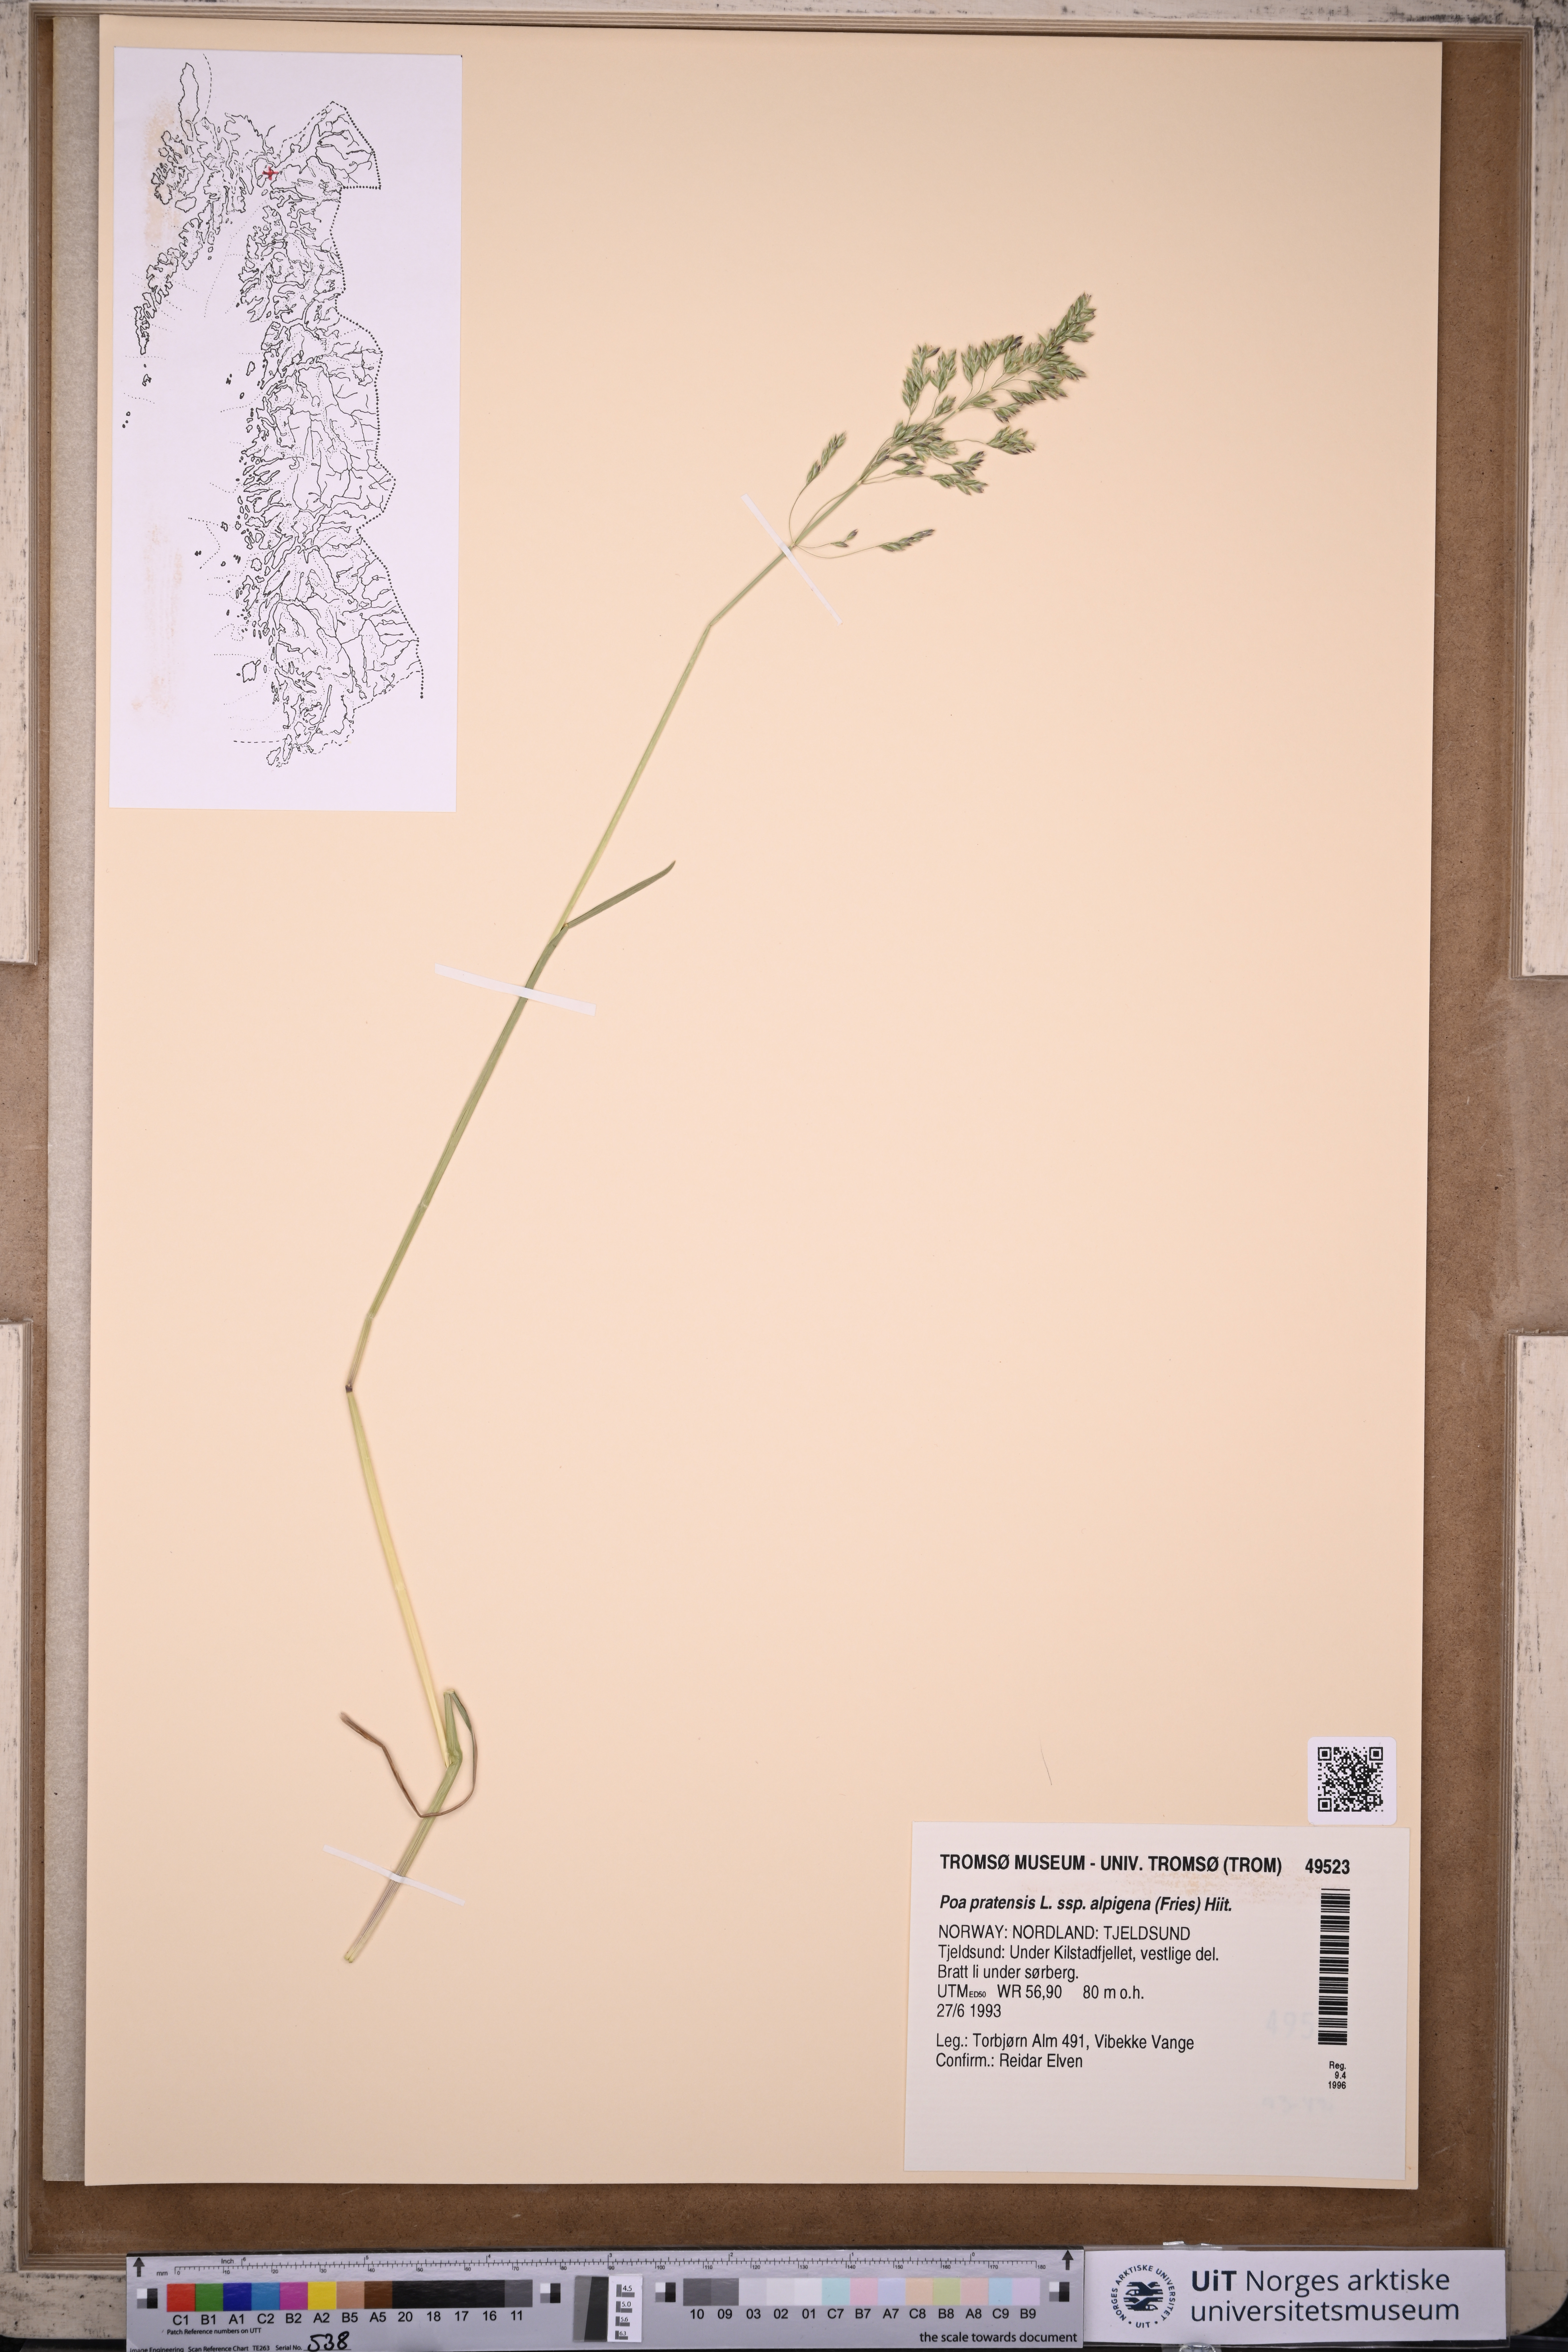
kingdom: Plantae
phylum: Tracheophyta
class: Liliopsida
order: Poales
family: Poaceae
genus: Poa
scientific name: Poa alpigena
